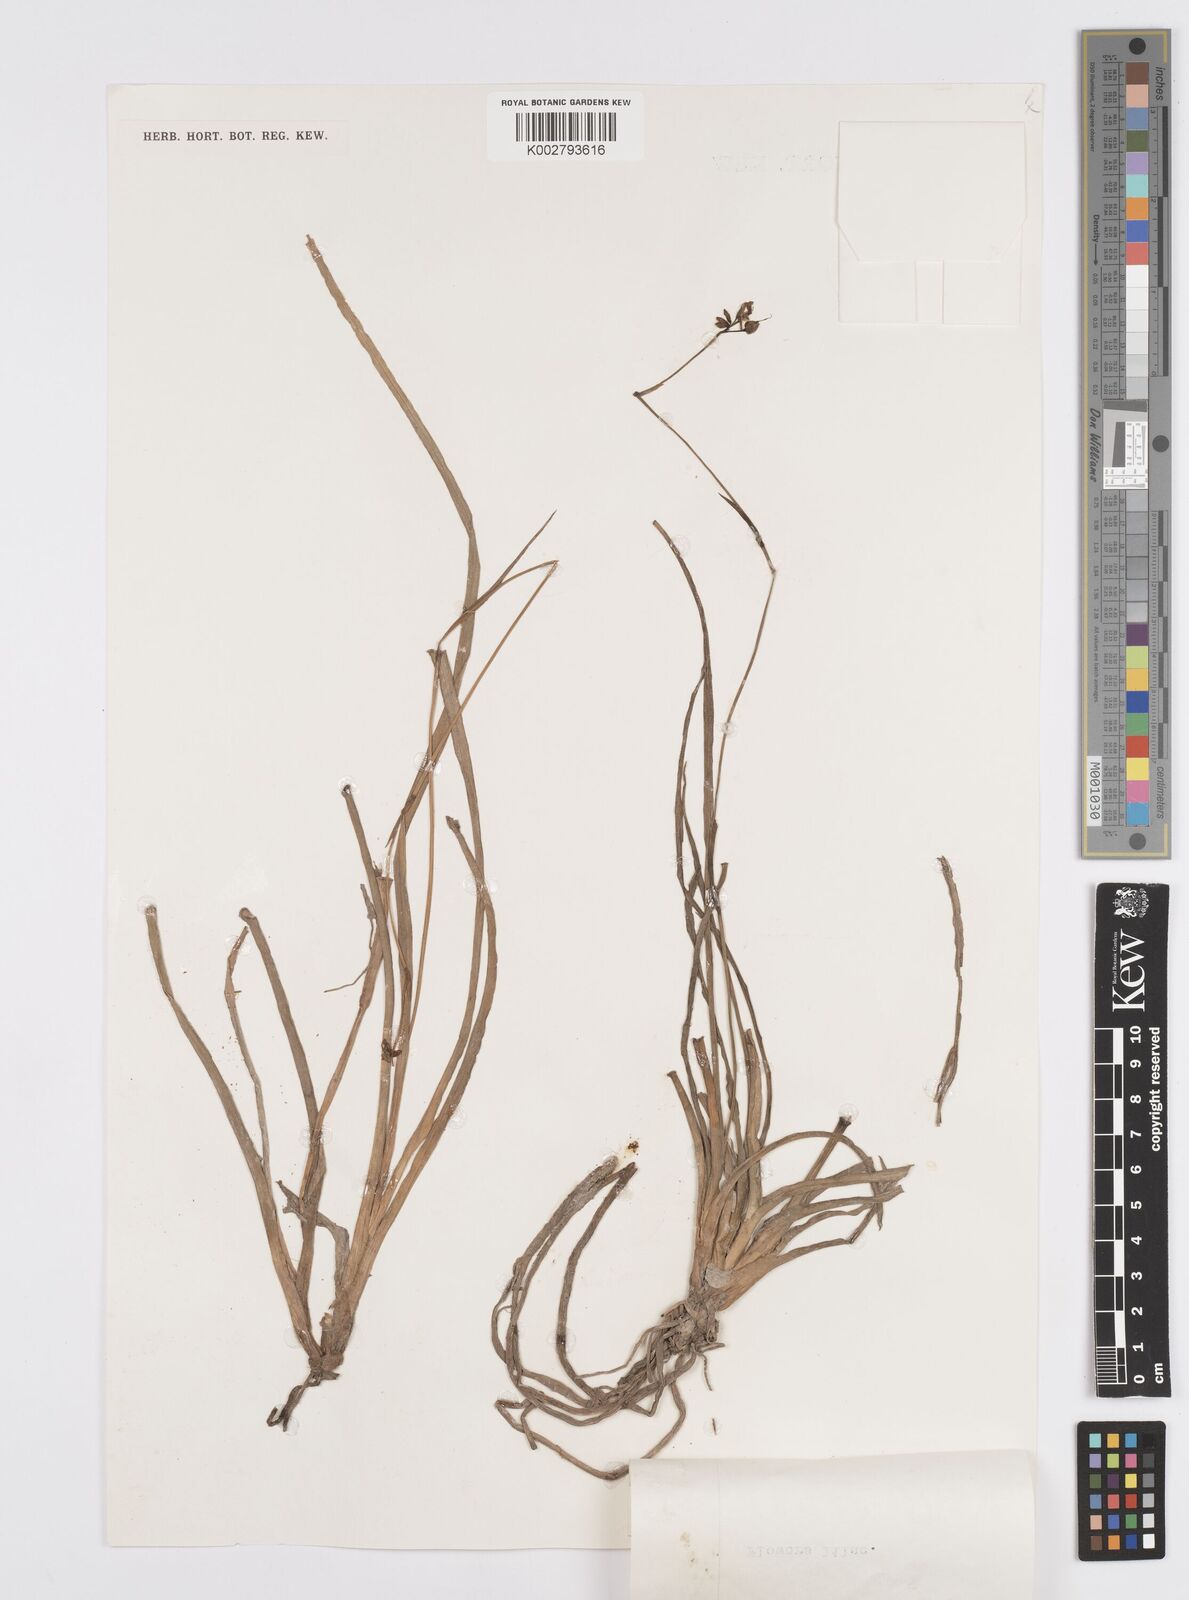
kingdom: Plantae
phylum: Tracheophyta
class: Liliopsida
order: Commelinales
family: Commelinaceae
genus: Murdannia
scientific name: Murdannia
